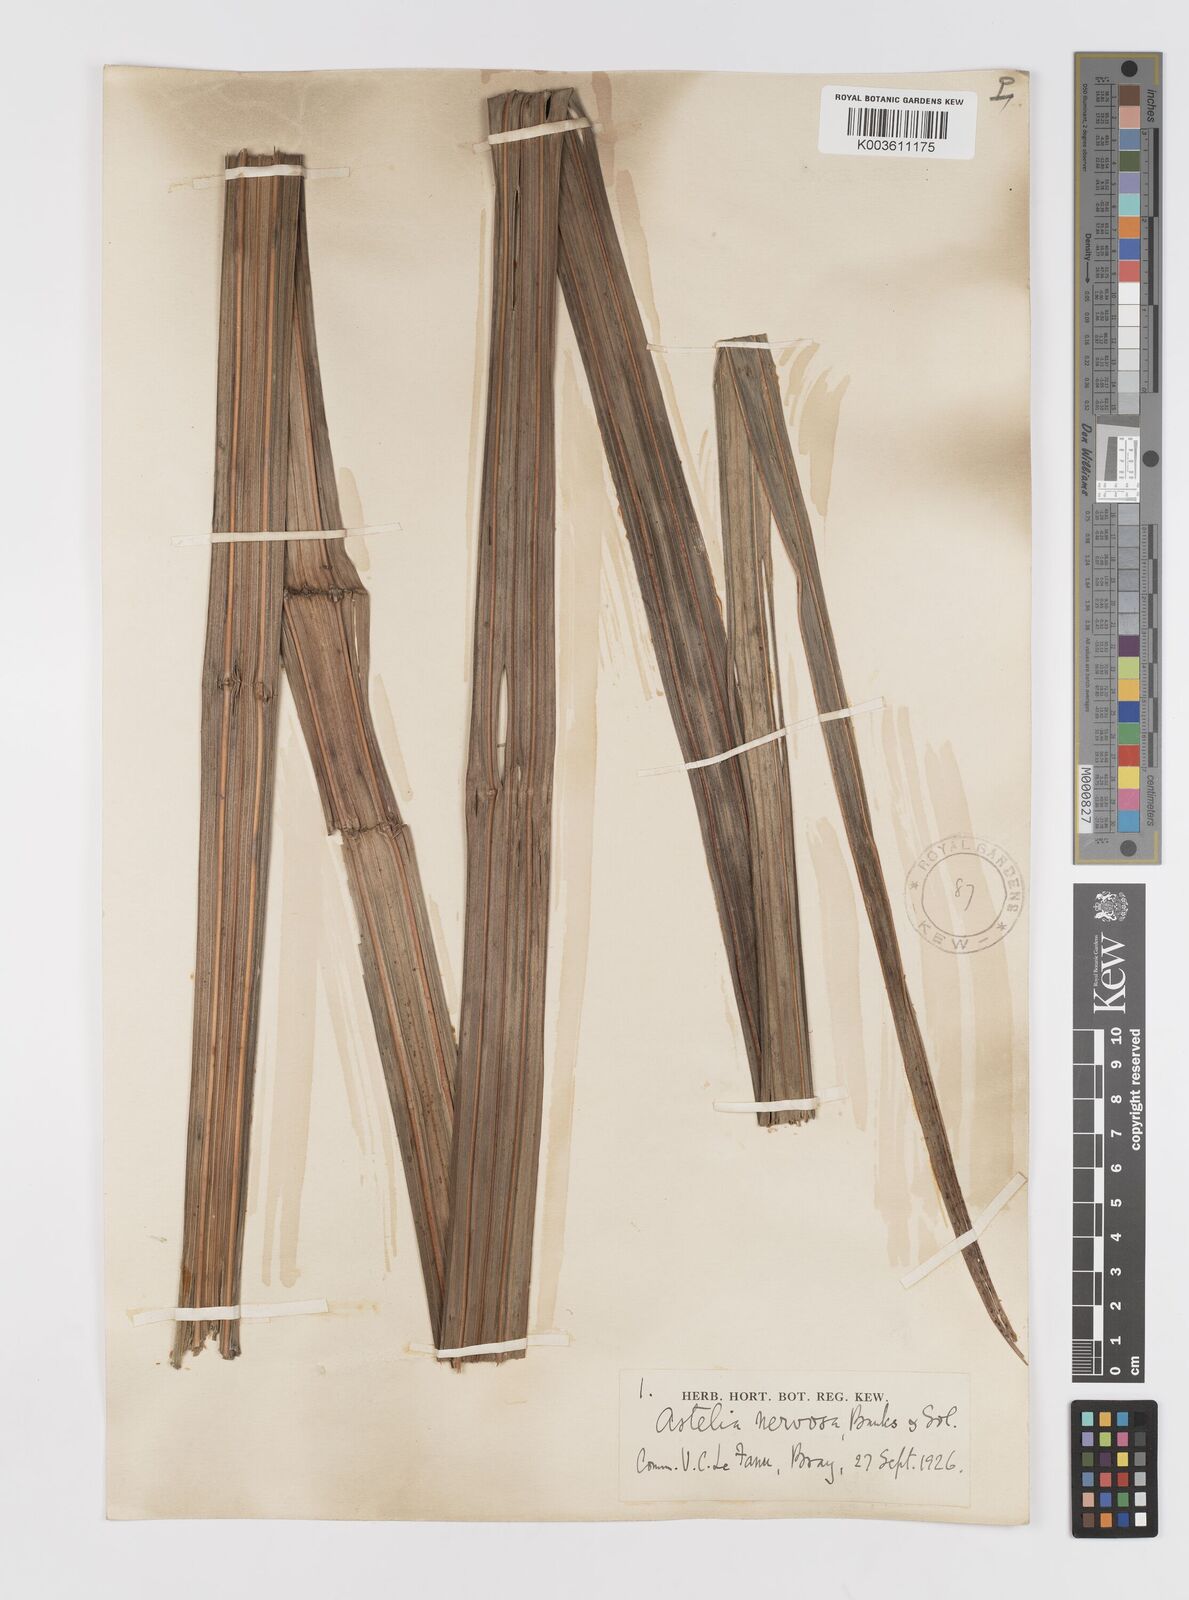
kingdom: Plantae
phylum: Tracheophyta
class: Liliopsida
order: Asparagales
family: Asteliaceae
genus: Astelia
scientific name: Astelia nervosa
